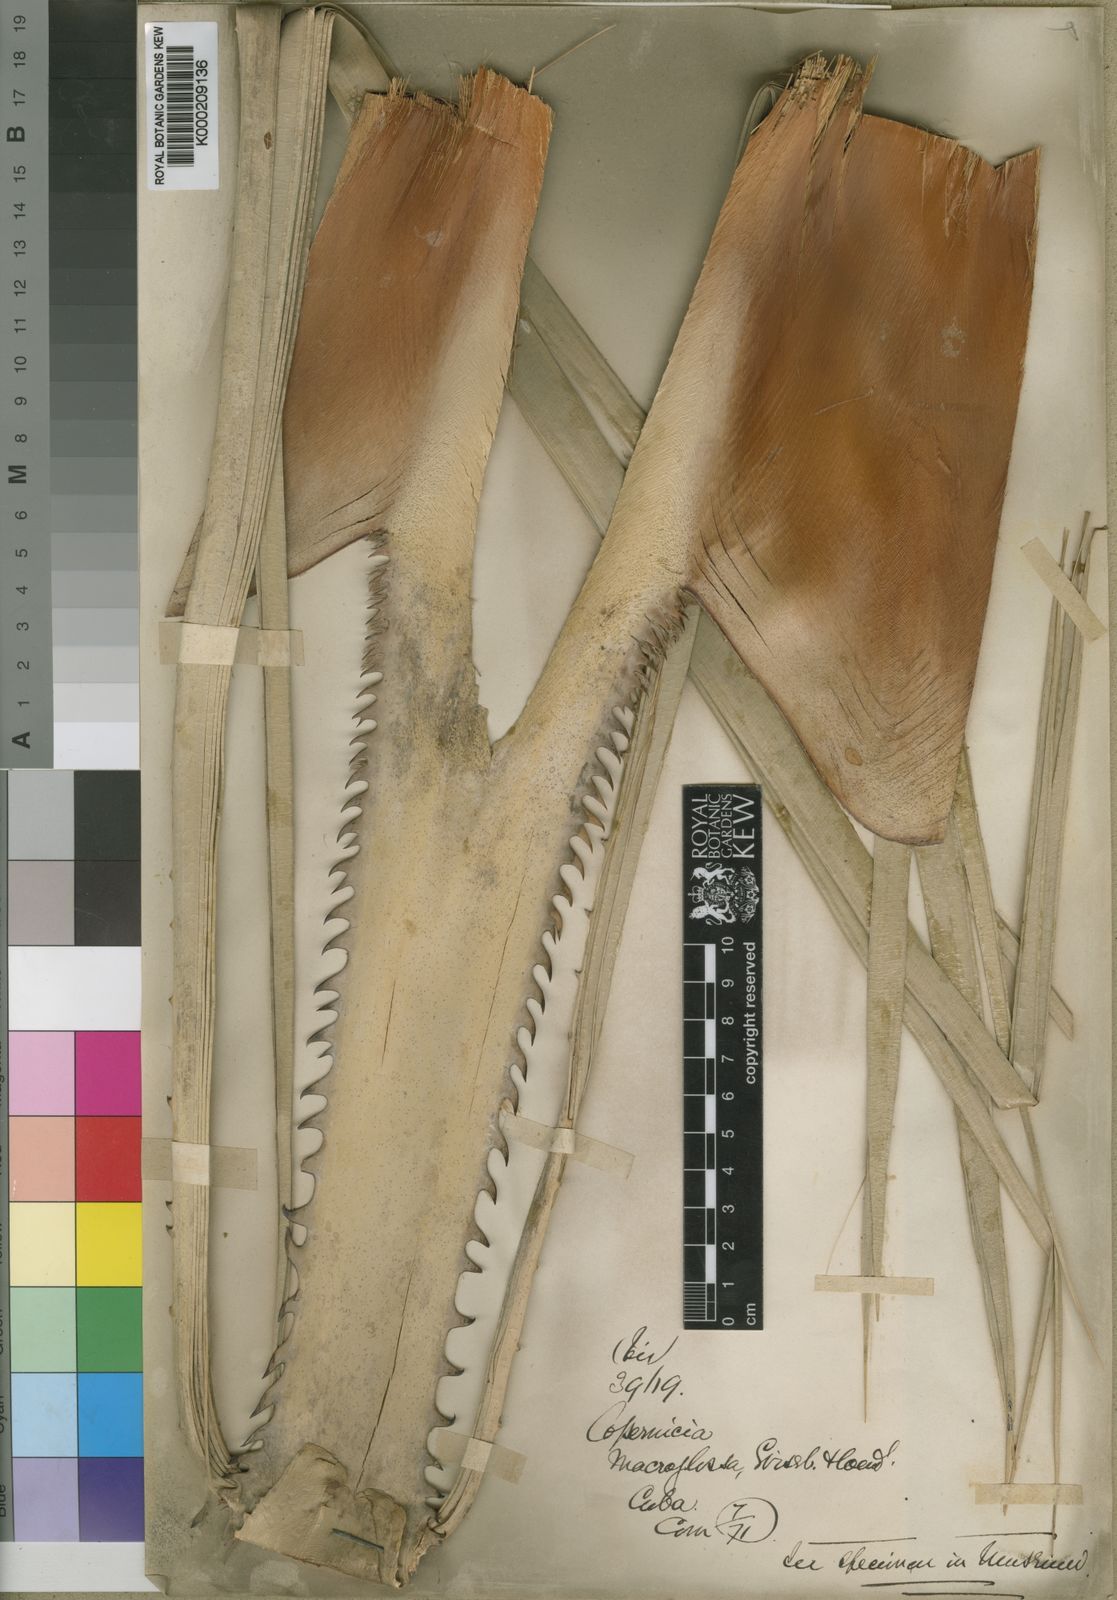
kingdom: Plantae
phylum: Tracheophyta
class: Liliopsida
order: Arecales
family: Arecaceae
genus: Copernicia
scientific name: Copernicia
